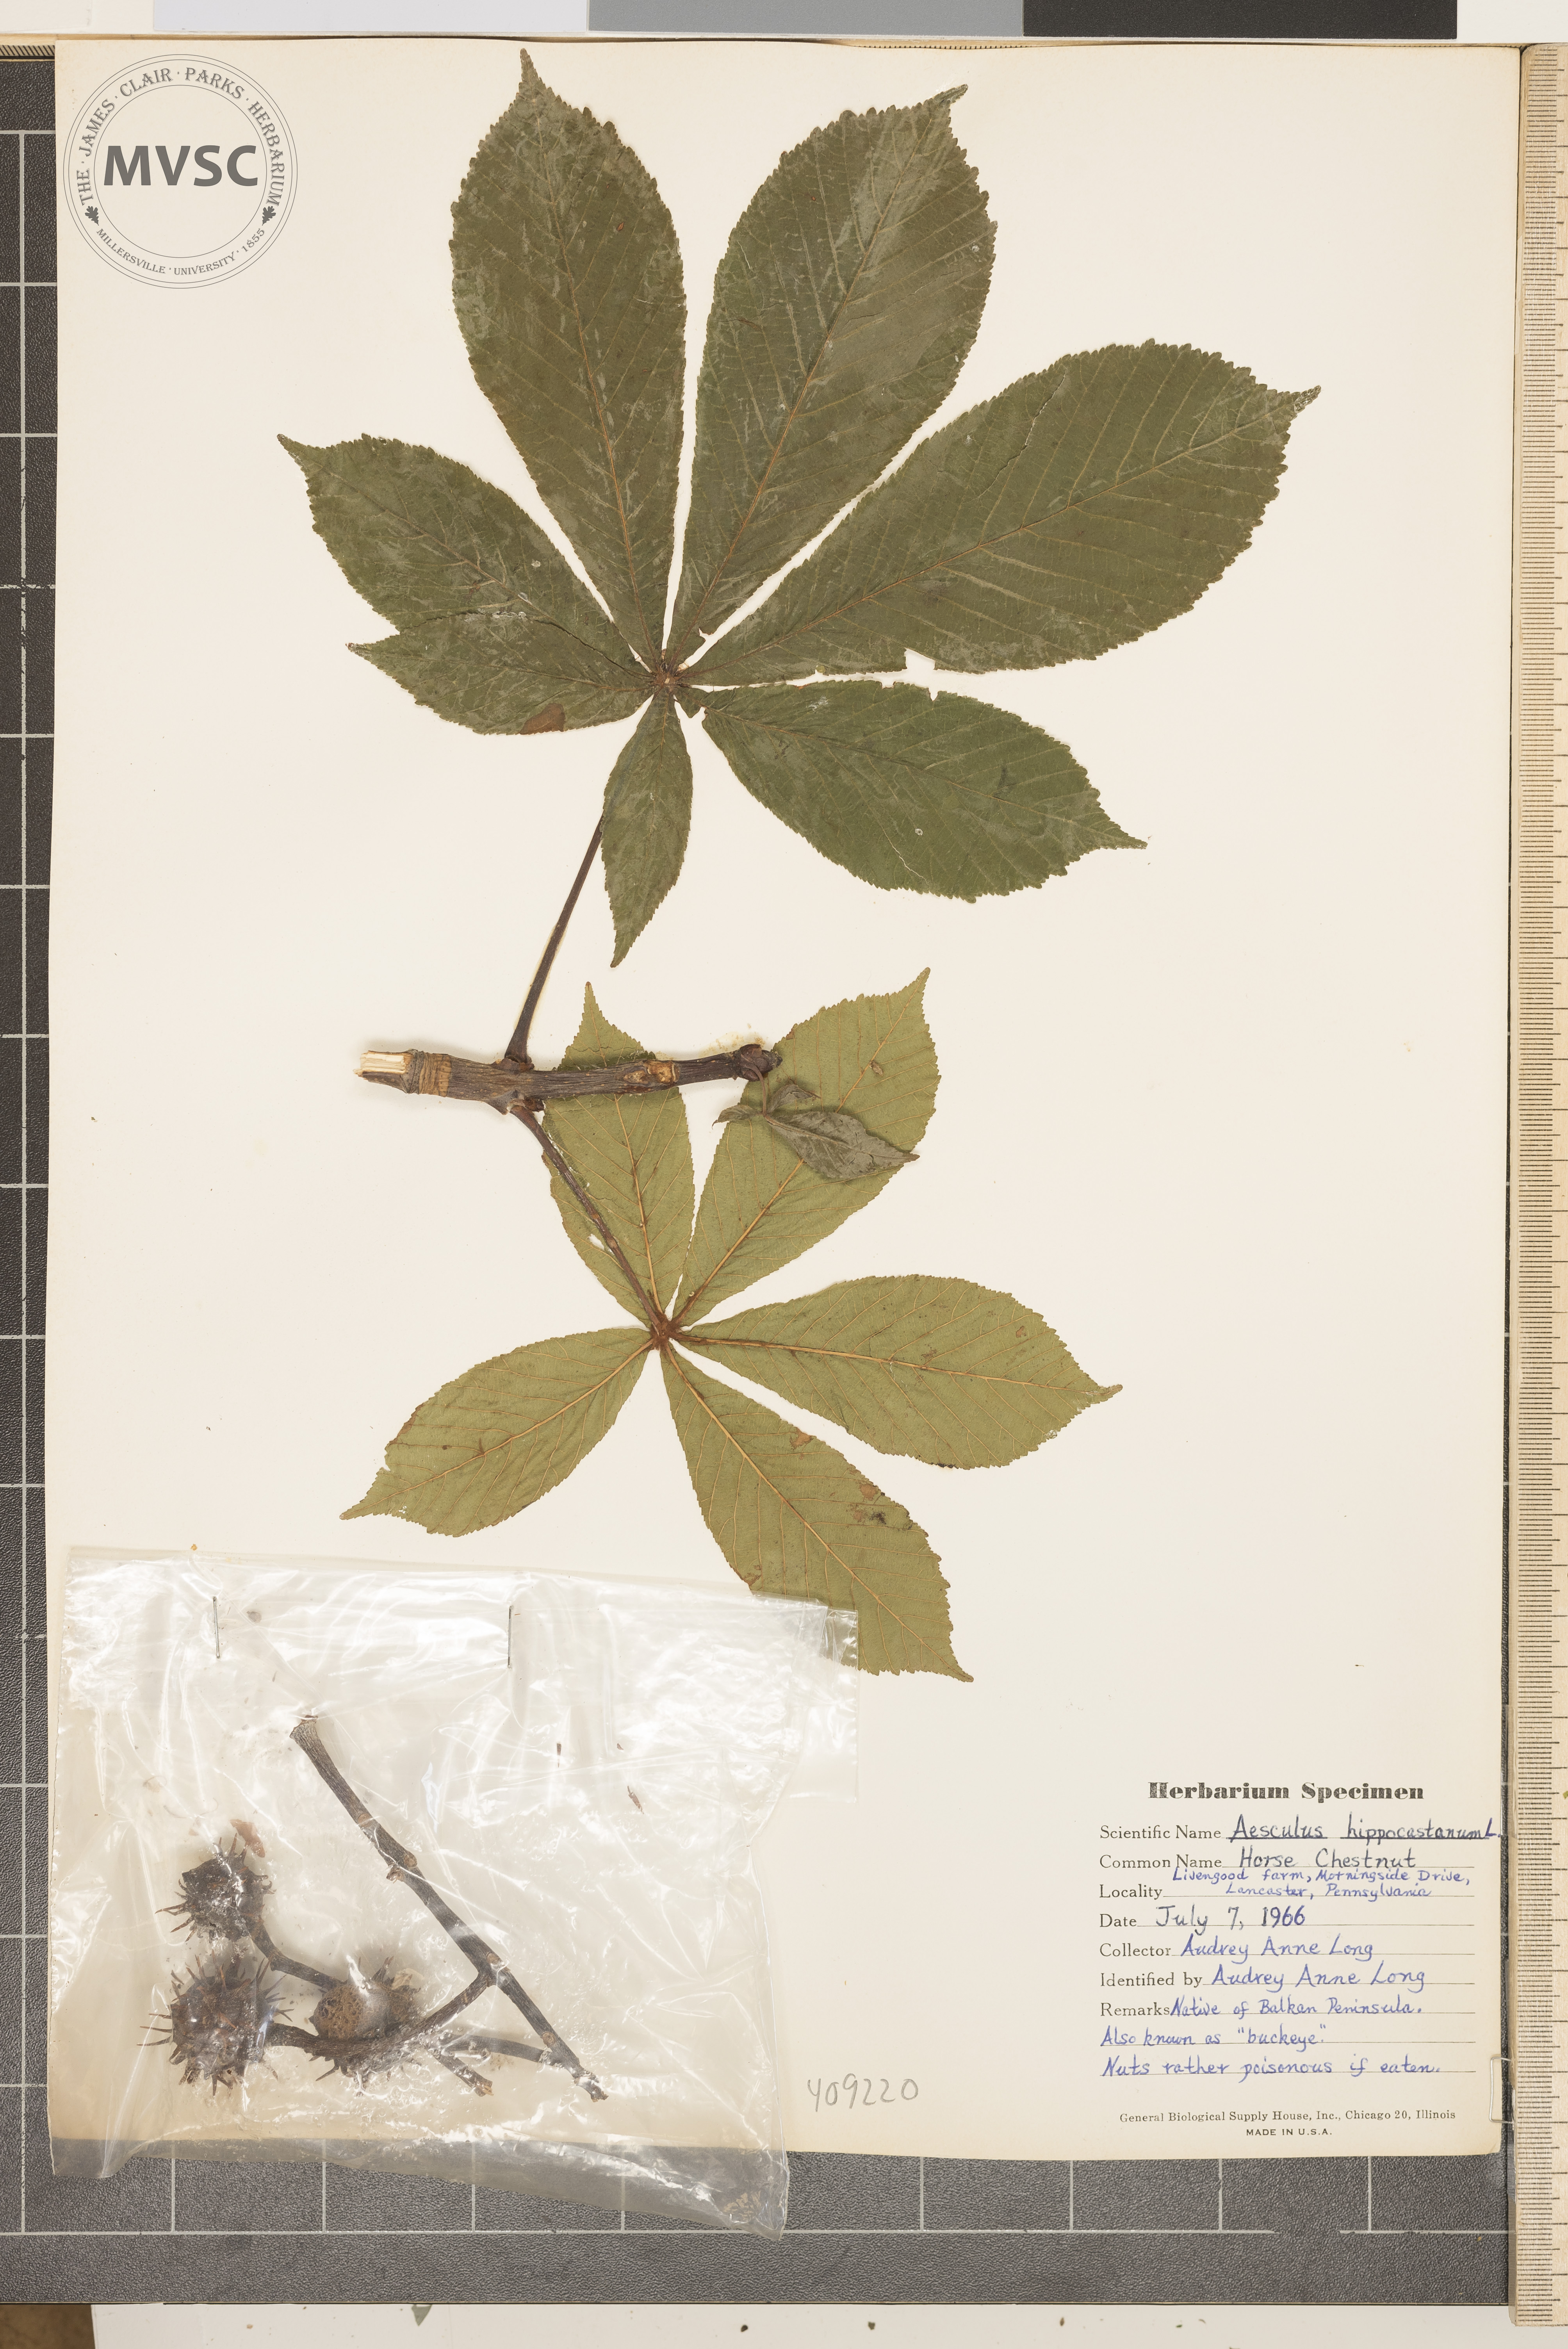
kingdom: Plantae
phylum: Tracheophyta
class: Magnoliopsida
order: Sapindales
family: Sapindaceae
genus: Aesculus
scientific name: Aesculus hippocastanum
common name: Horse-chestnut
